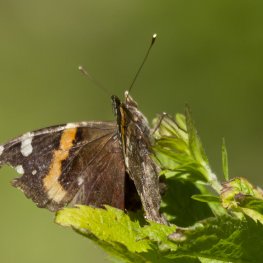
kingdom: Animalia
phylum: Arthropoda
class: Insecta
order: Lepidoptera
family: Nymphalidae
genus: Vanessa
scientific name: Vanessa atalanta
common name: Red Admiral
